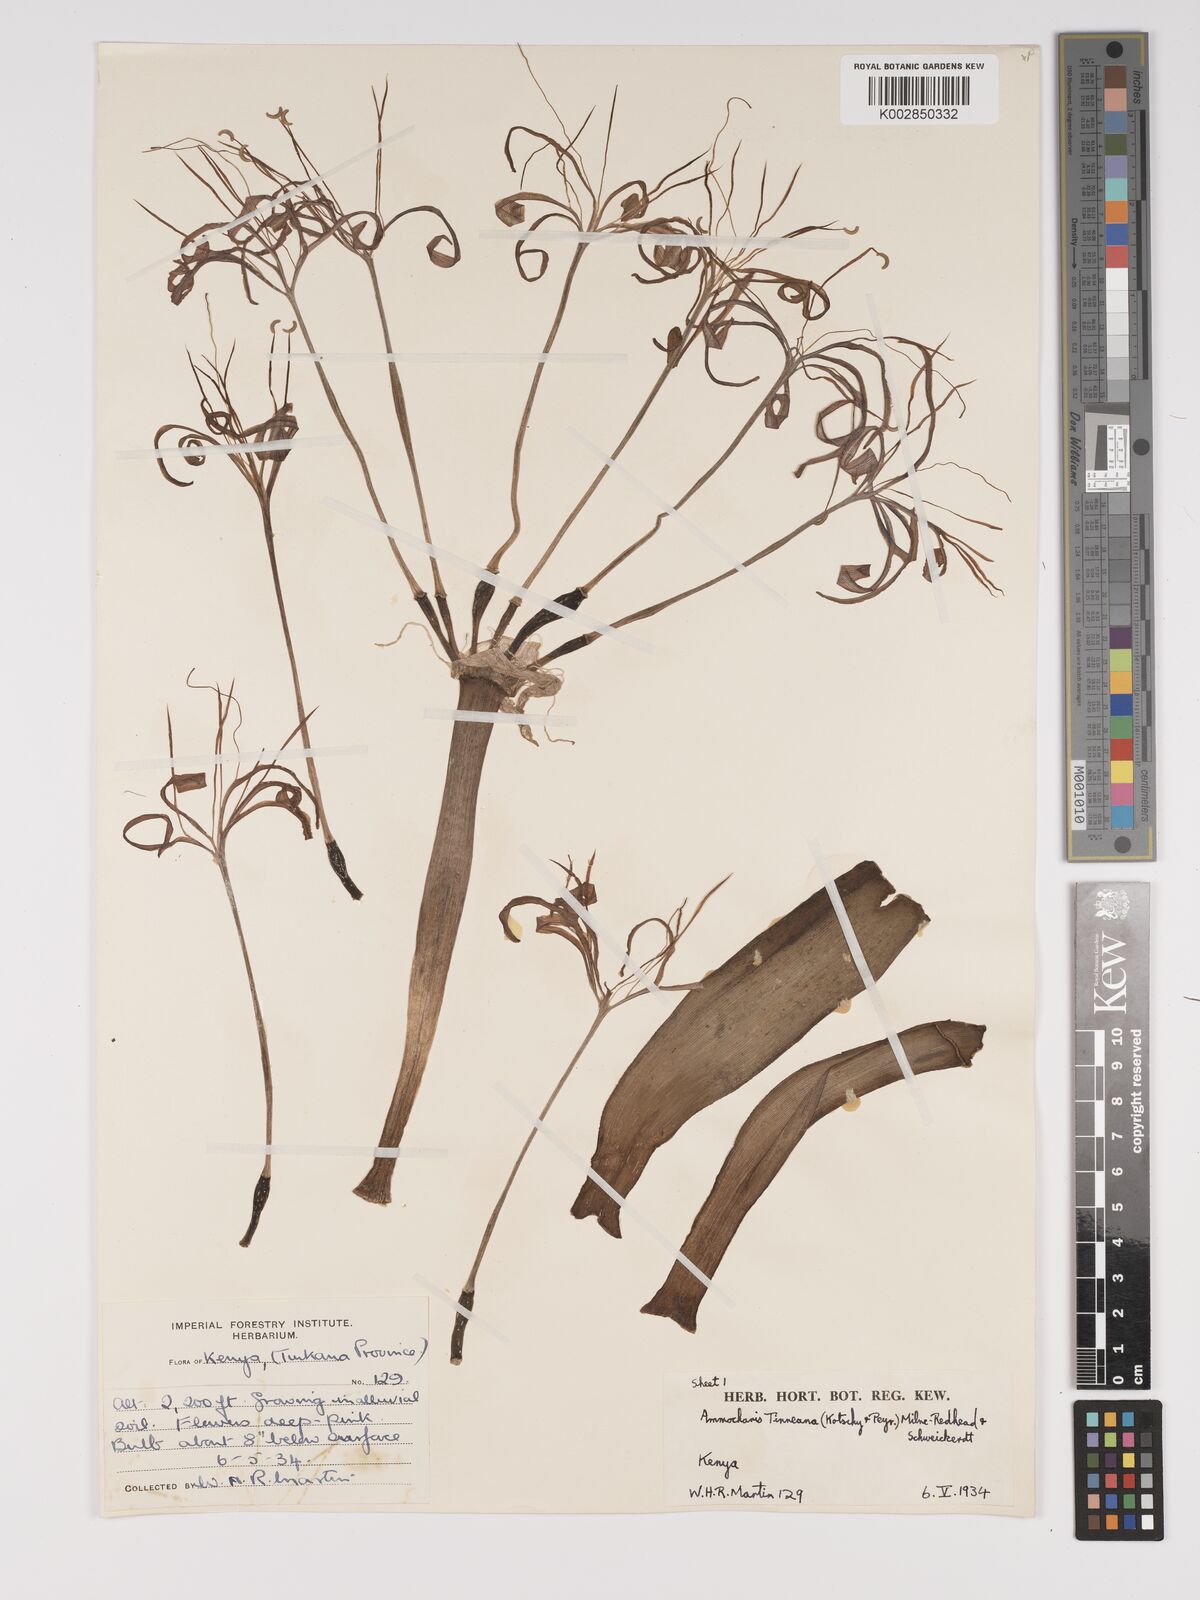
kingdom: Plantae
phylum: Tracheophyta
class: Liliopsida
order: Asparagales
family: Amaryllidaceae
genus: Ammocharis
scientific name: Ammocharis tinneana
